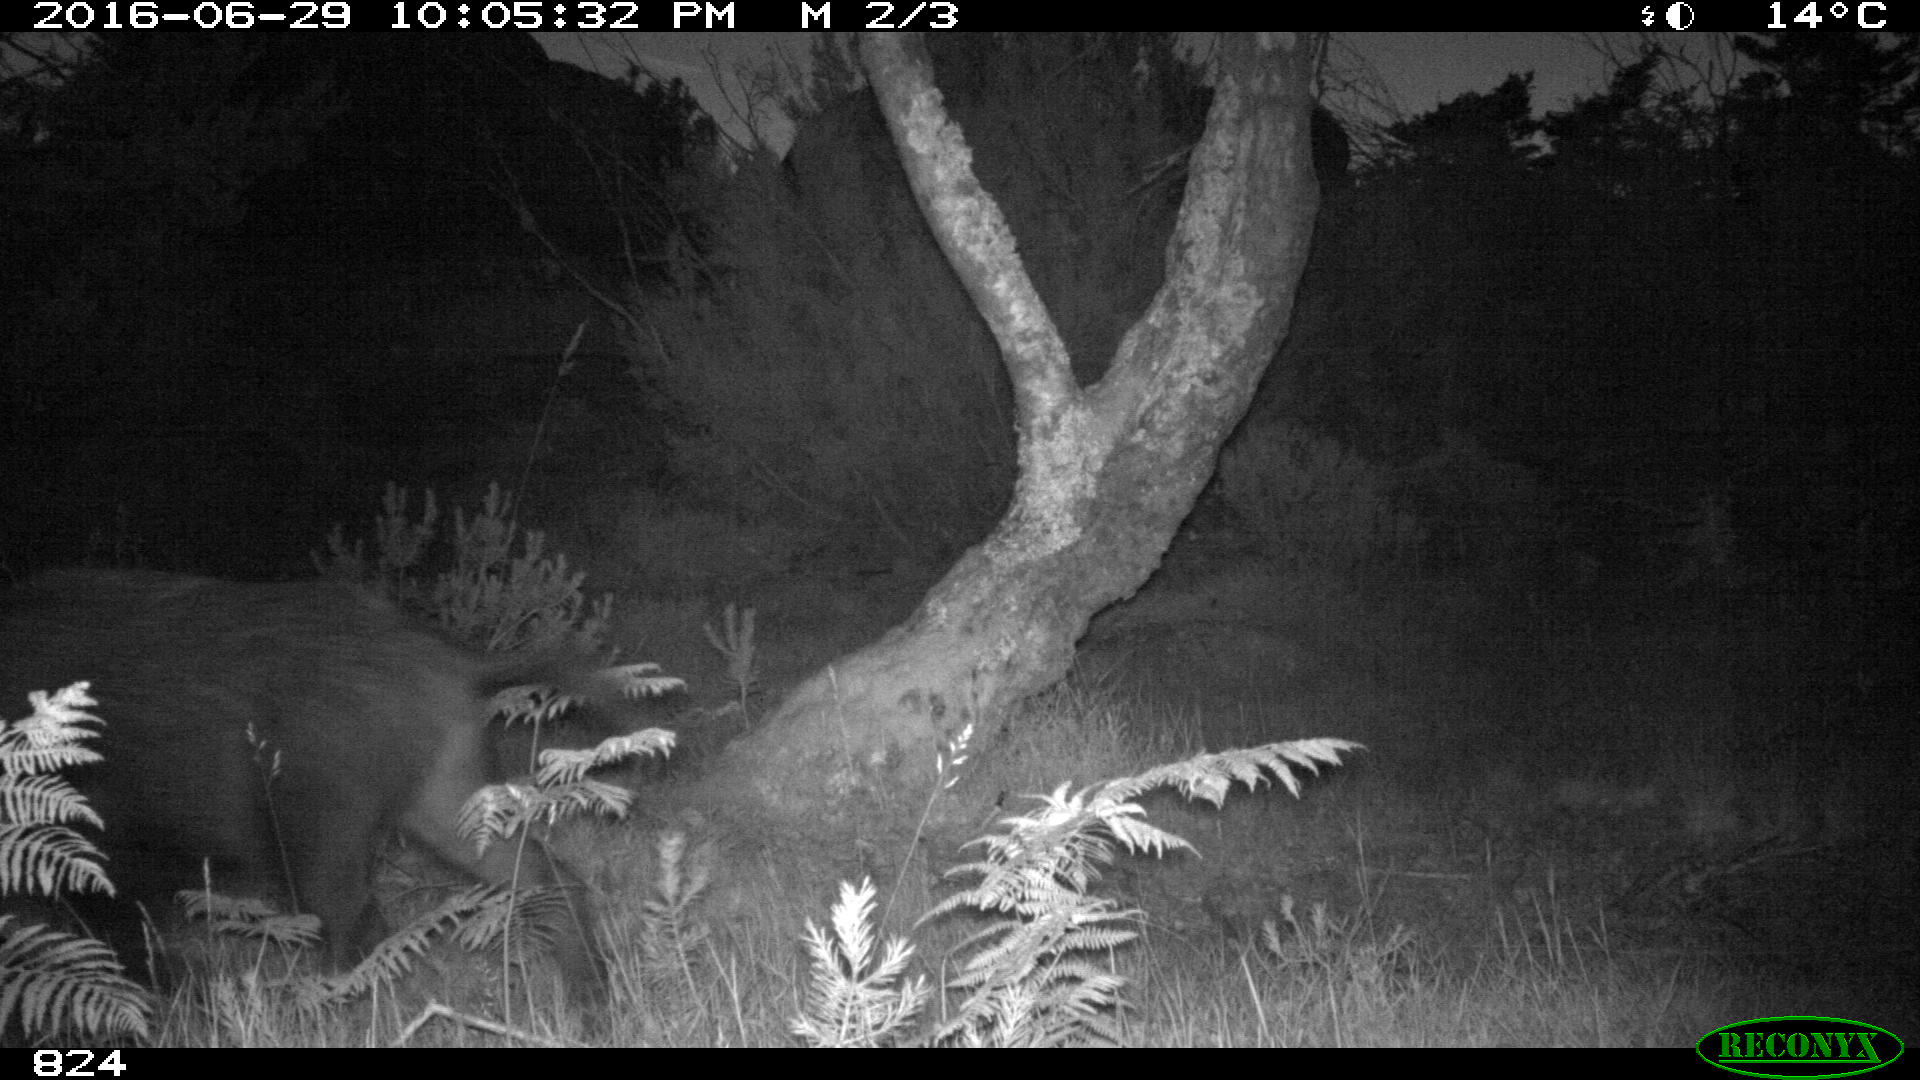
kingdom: Animalia
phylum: Chordata
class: Mammalia
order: Artiodactyla
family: Suidae
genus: Sus
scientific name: Sus scrofa
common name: Wild boar
